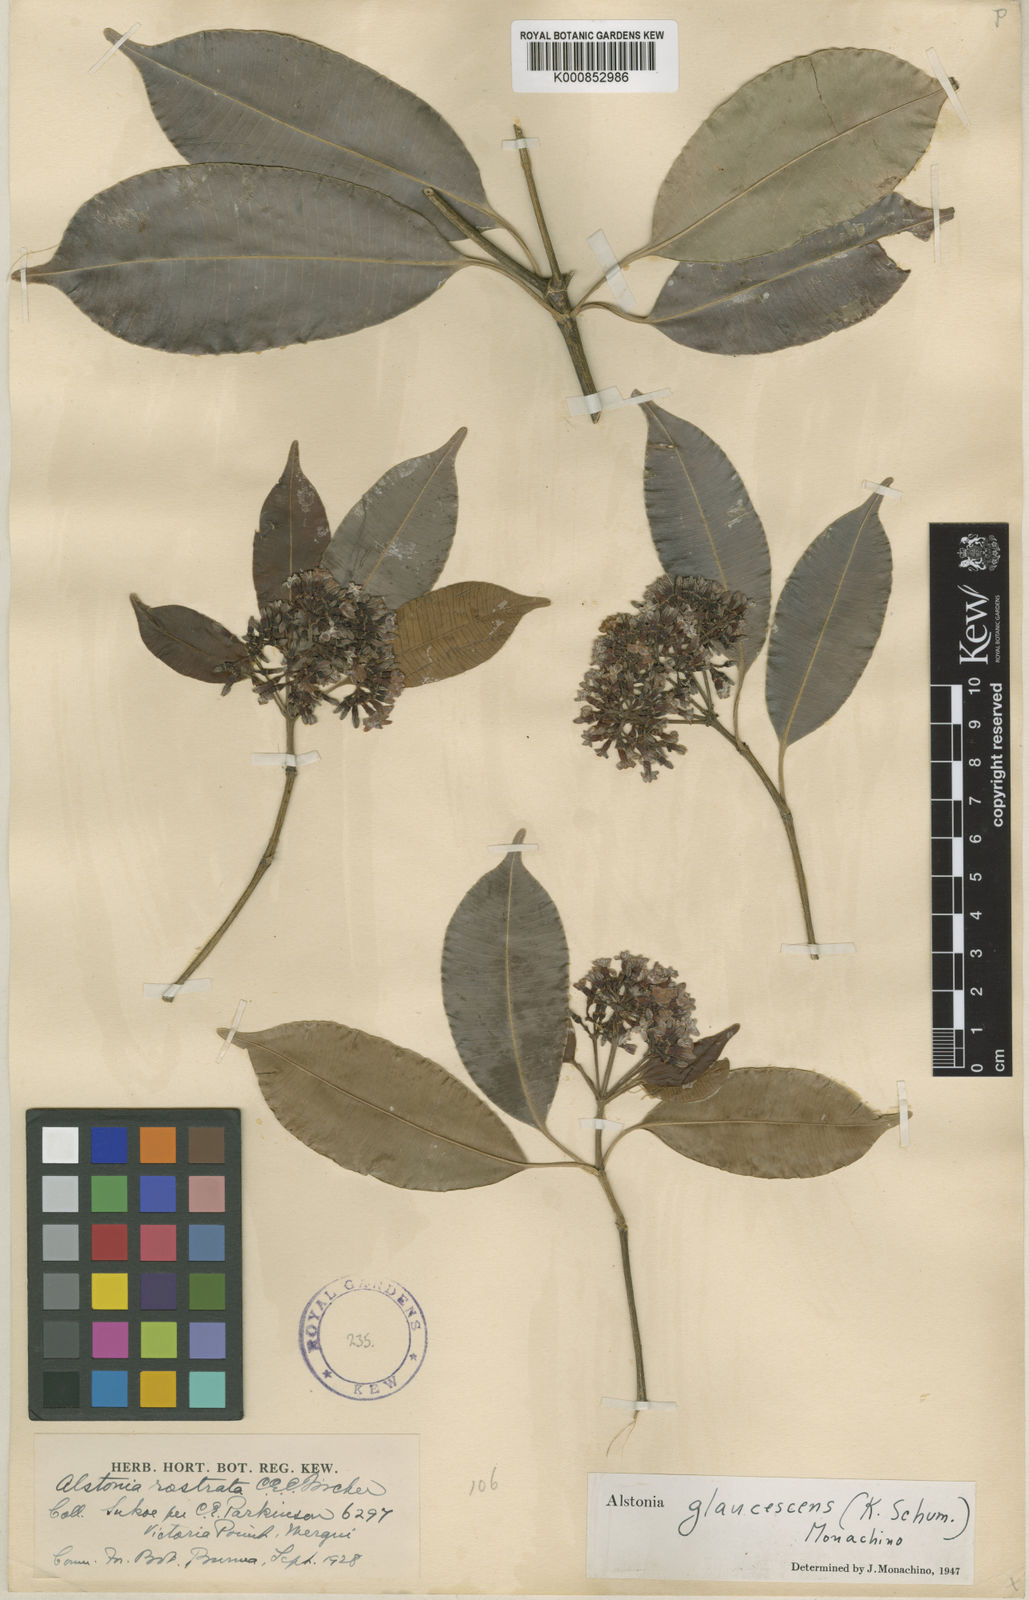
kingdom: Plantae
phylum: Tracheophyta
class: Magnoliopsida
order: Gentianales
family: Apocynaceae
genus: Alstonia
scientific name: Alstonia rostrata
